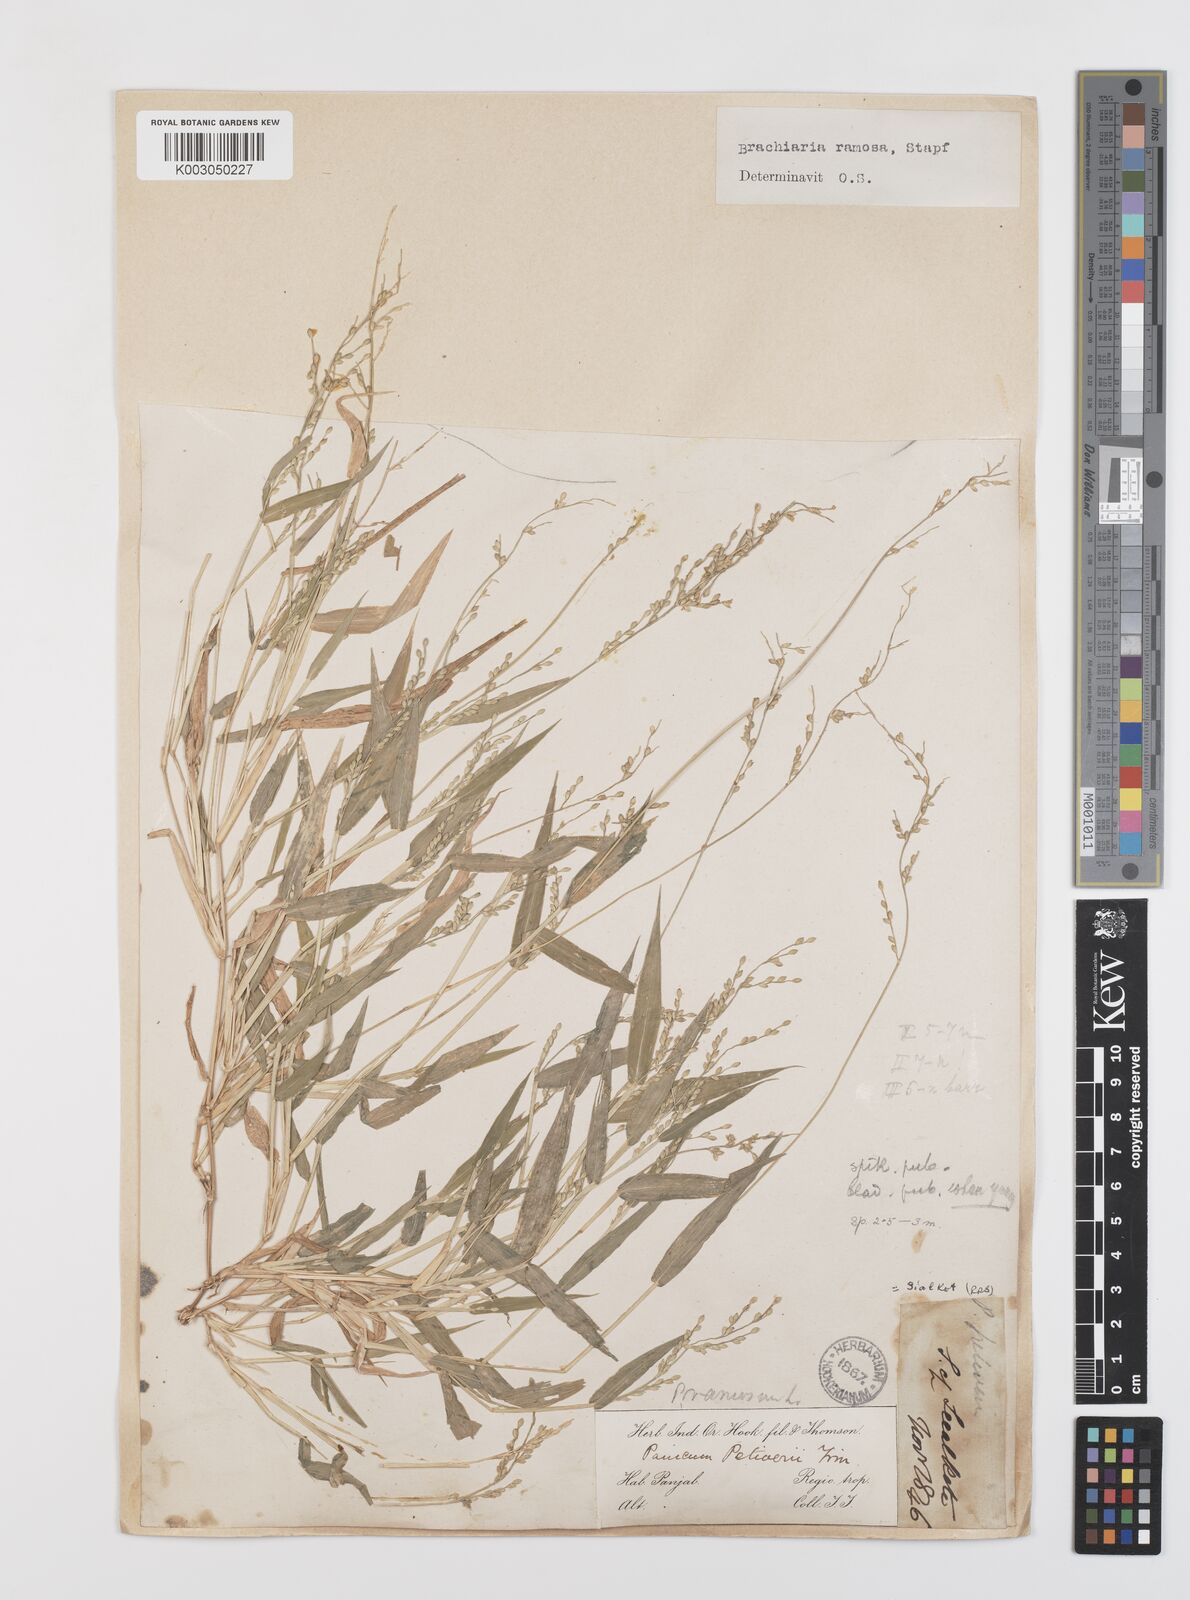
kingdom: Plantae
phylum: Tracheophyta
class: Liliopsida
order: Poales
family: Poaceae
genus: Urochloa
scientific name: Urochloa ramosa
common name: Browntop millet
